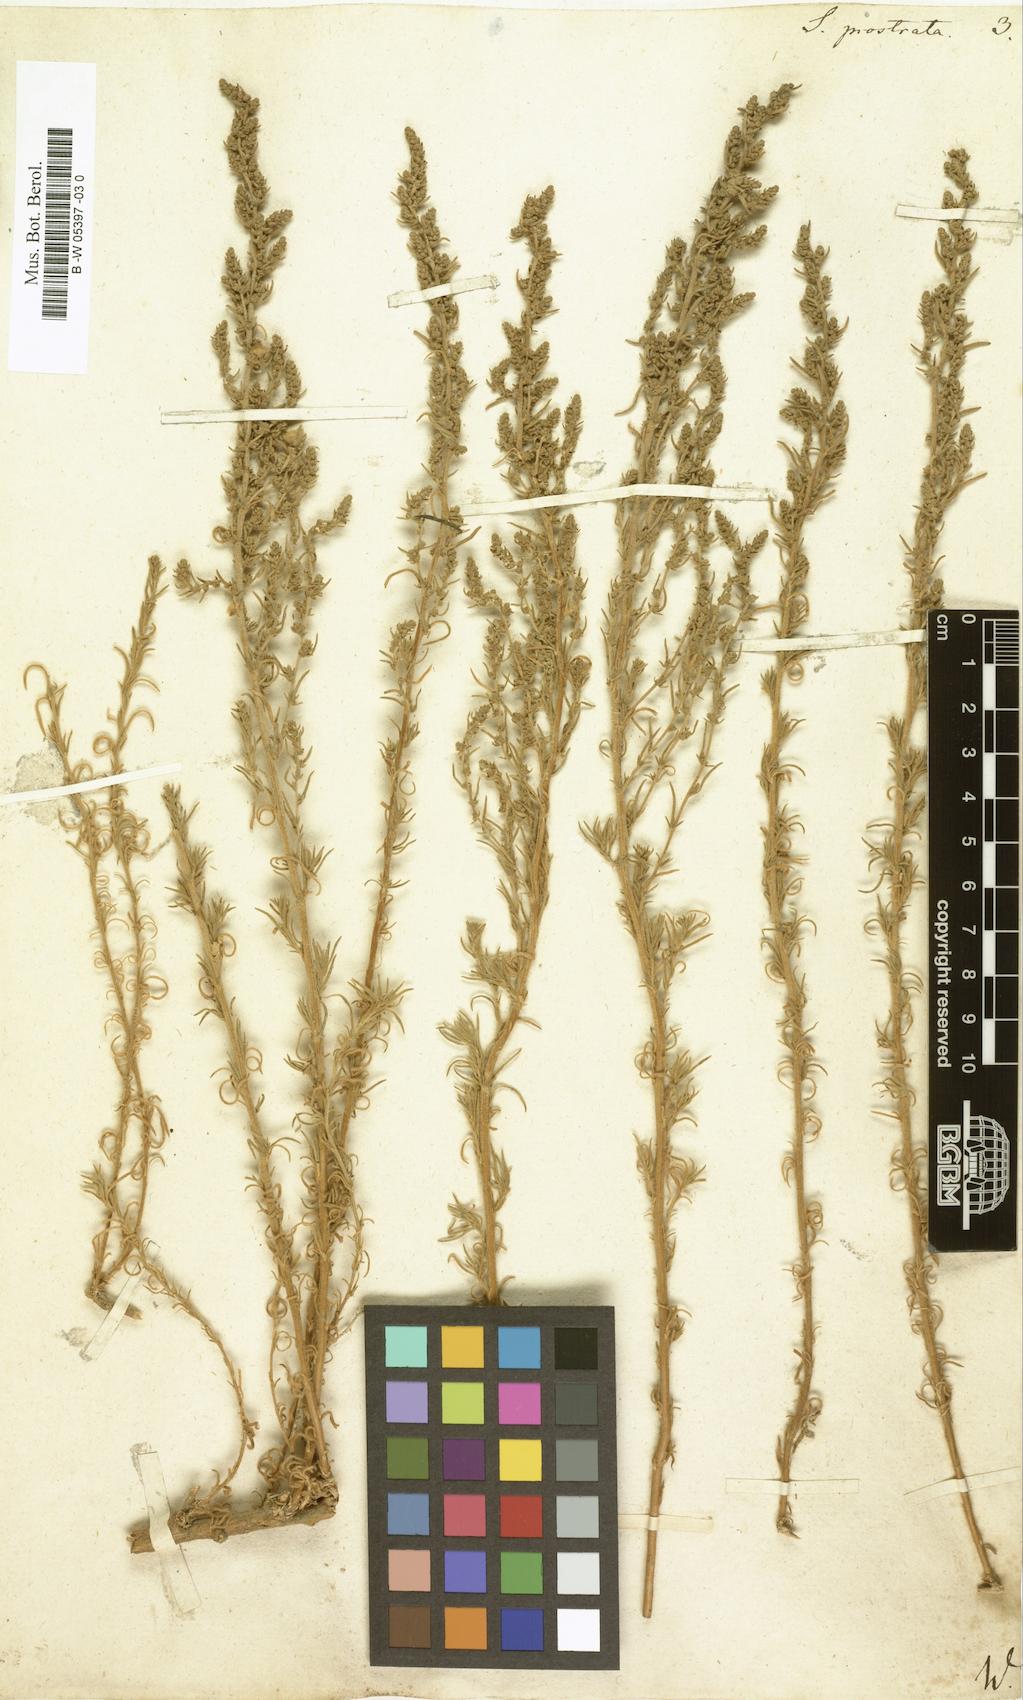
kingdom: Plantae
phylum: Tracheophyta
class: Magnoliopsida
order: Caryophyllales
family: Amaranthaceae
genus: Bassia
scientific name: Bassia
